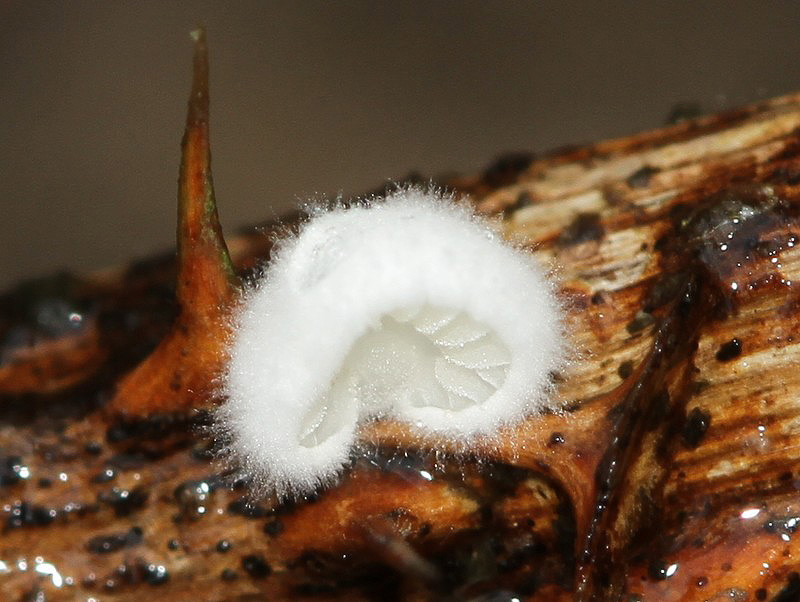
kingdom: Fungi
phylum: Basidiomycota
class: Agaricomycetes
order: Agaricales
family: Crepidotaceae
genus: Crepidotus
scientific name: Crepidotus variabilis
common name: forskelligformet muslingesvamp
